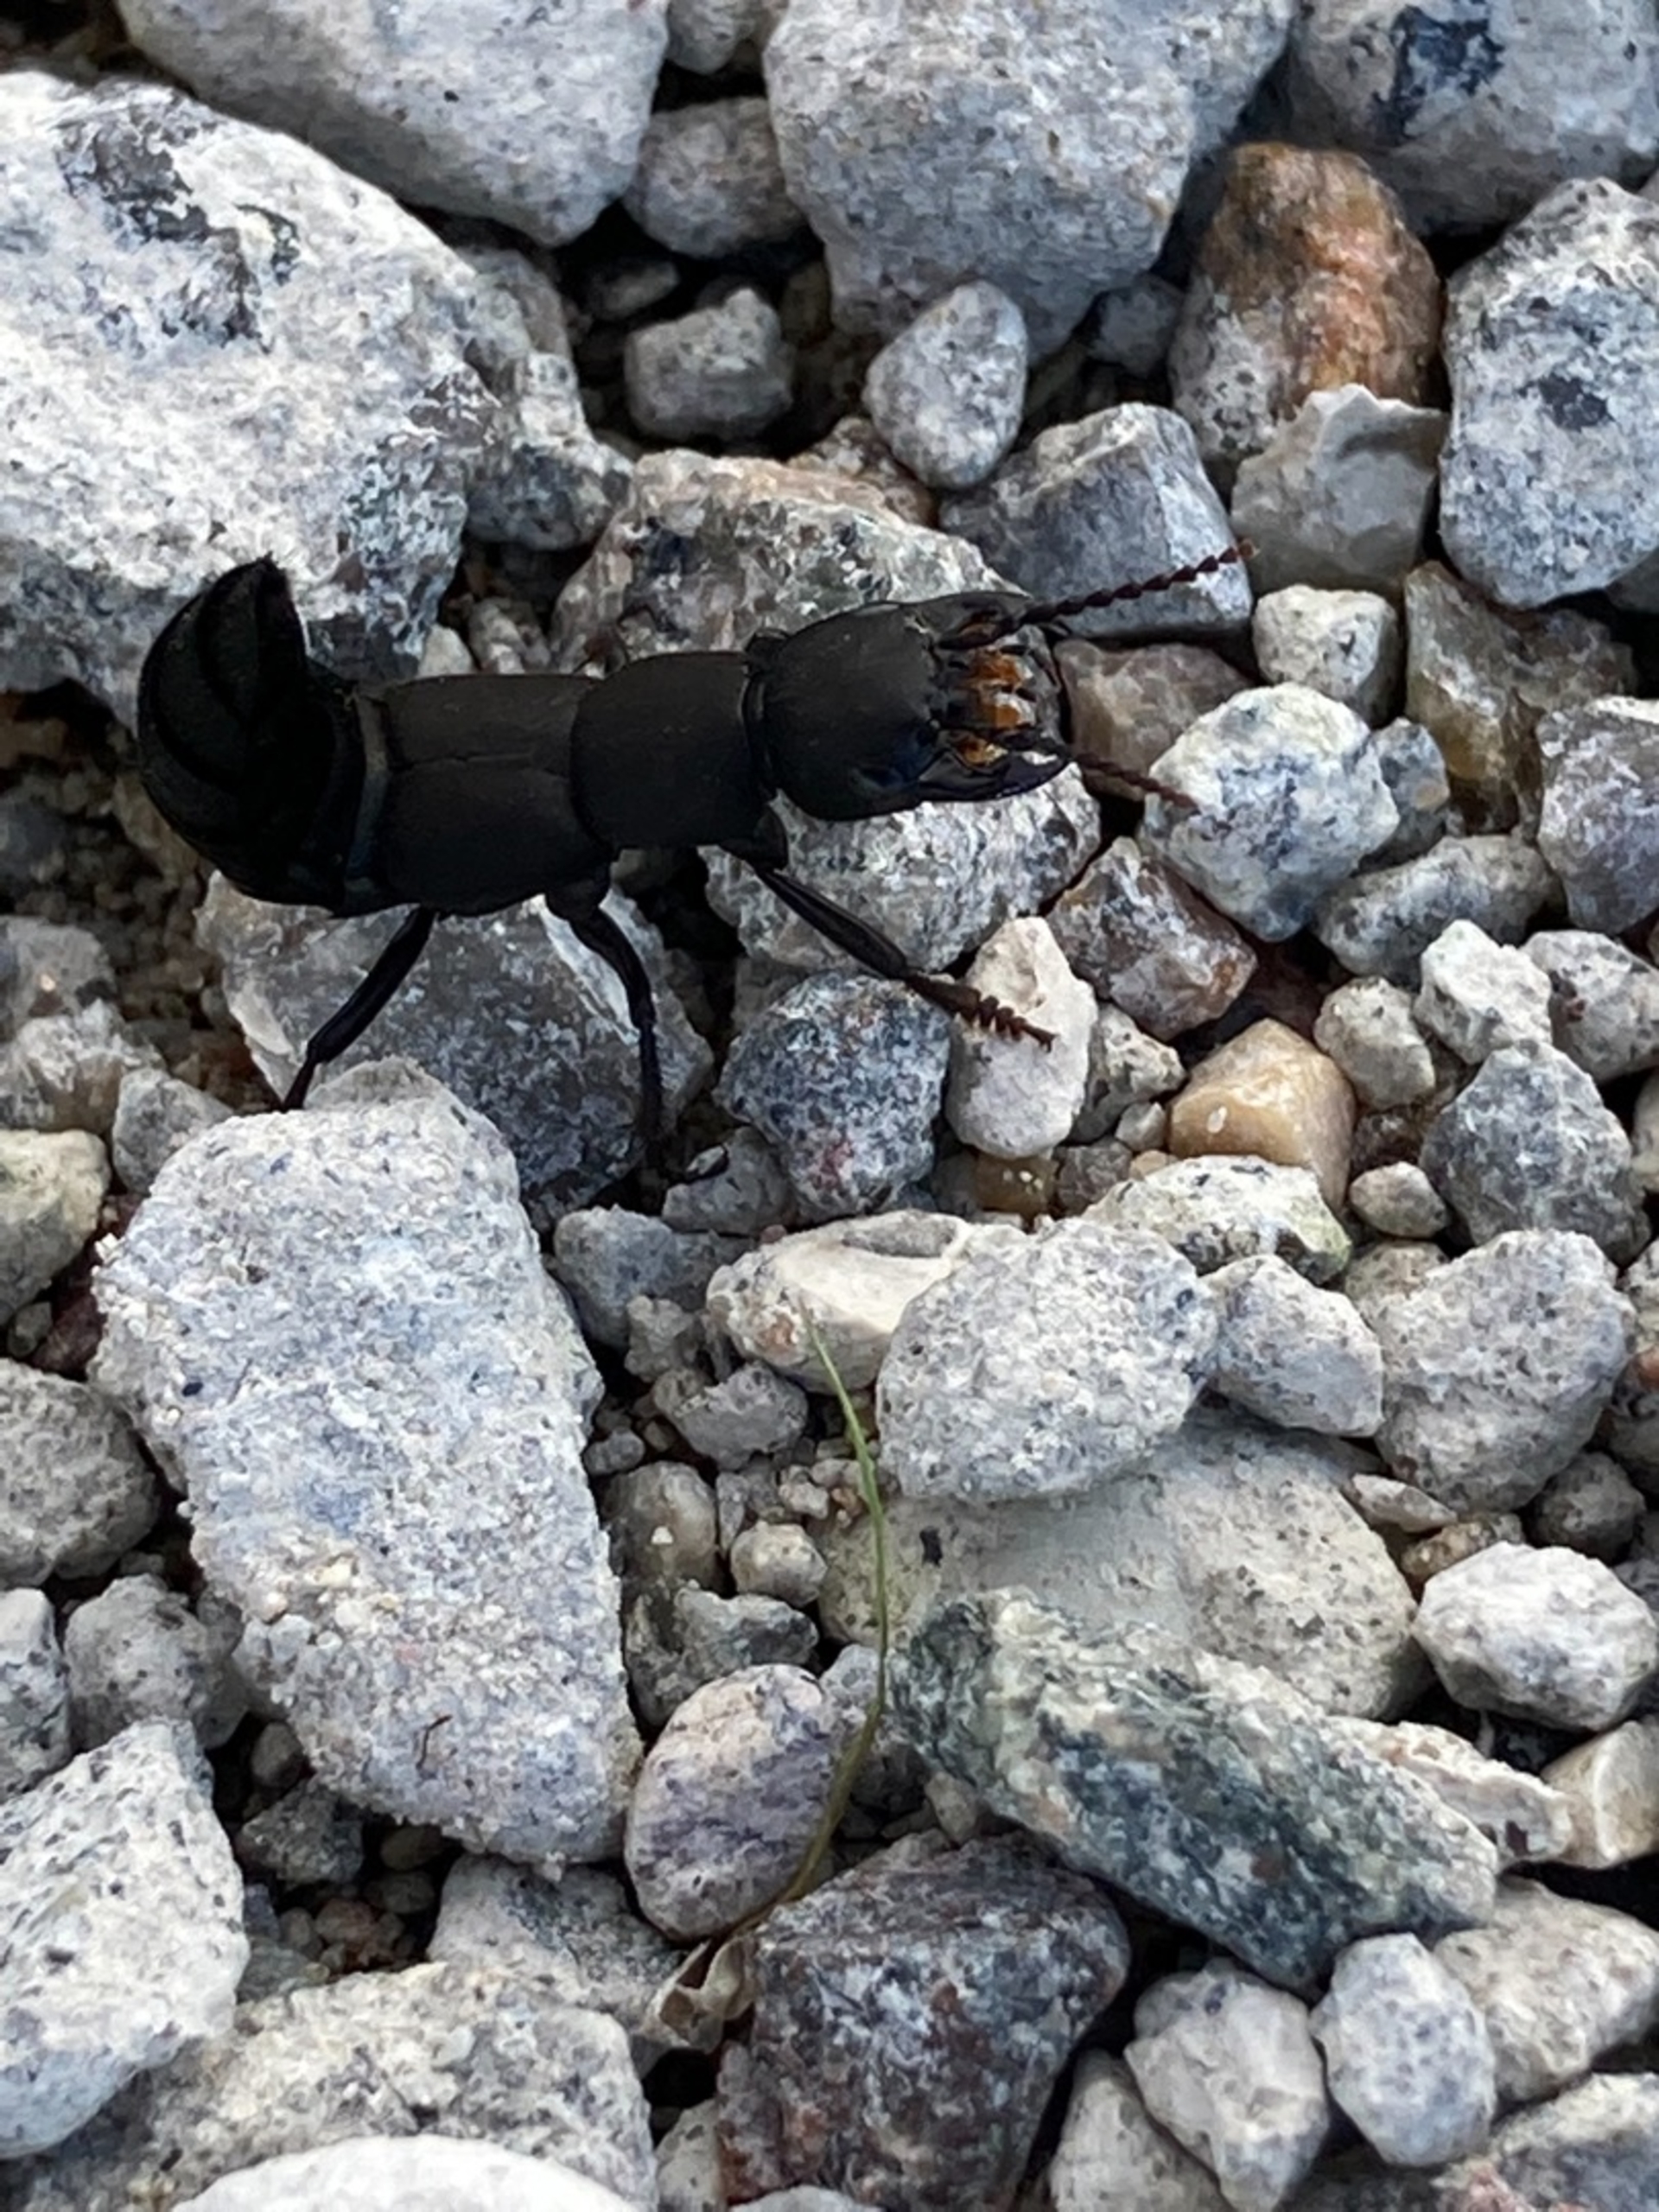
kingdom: Animalia
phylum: Arthropoda
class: Insecta
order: Coleoptera
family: Staphylinidae
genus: Ocypus
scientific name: Ocypus olens
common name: Stor rovbille
